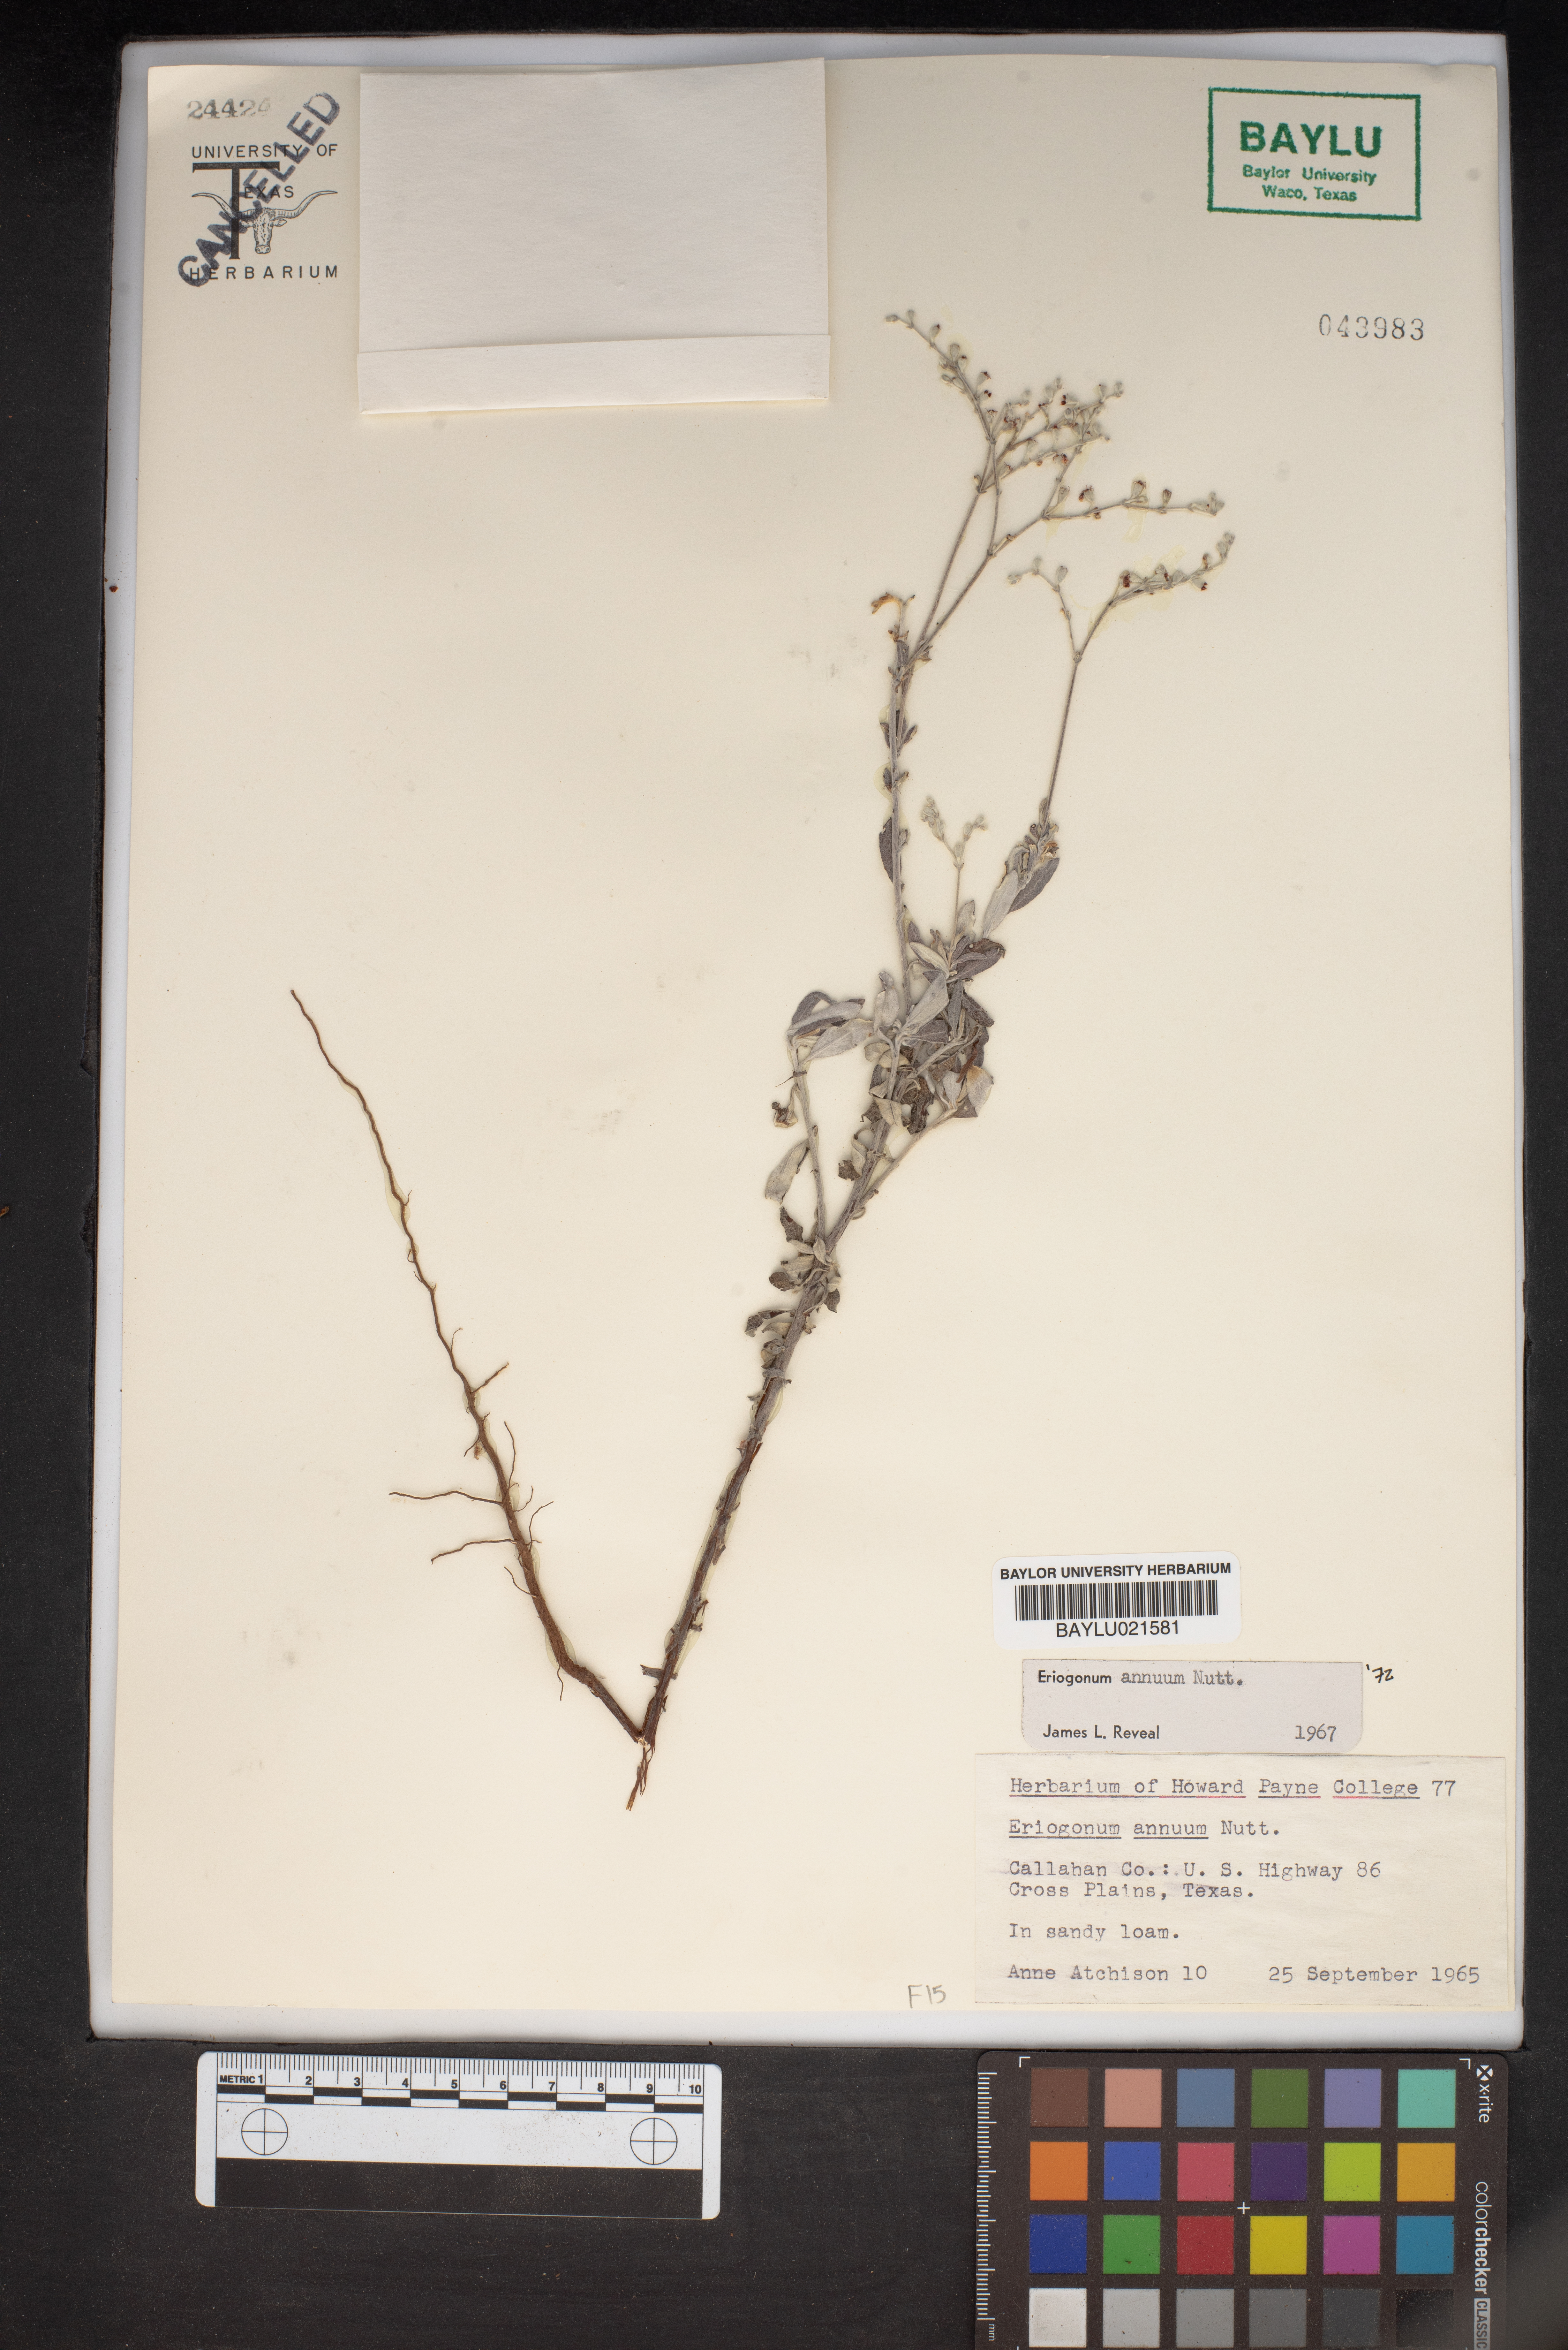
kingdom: Plantae
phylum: Tracheophyta
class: Magnoliopsida
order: Caryophyllales
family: Polygonaceae
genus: Eriogonum
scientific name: Eriogonum annuum
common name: Annual wild buckwheat
